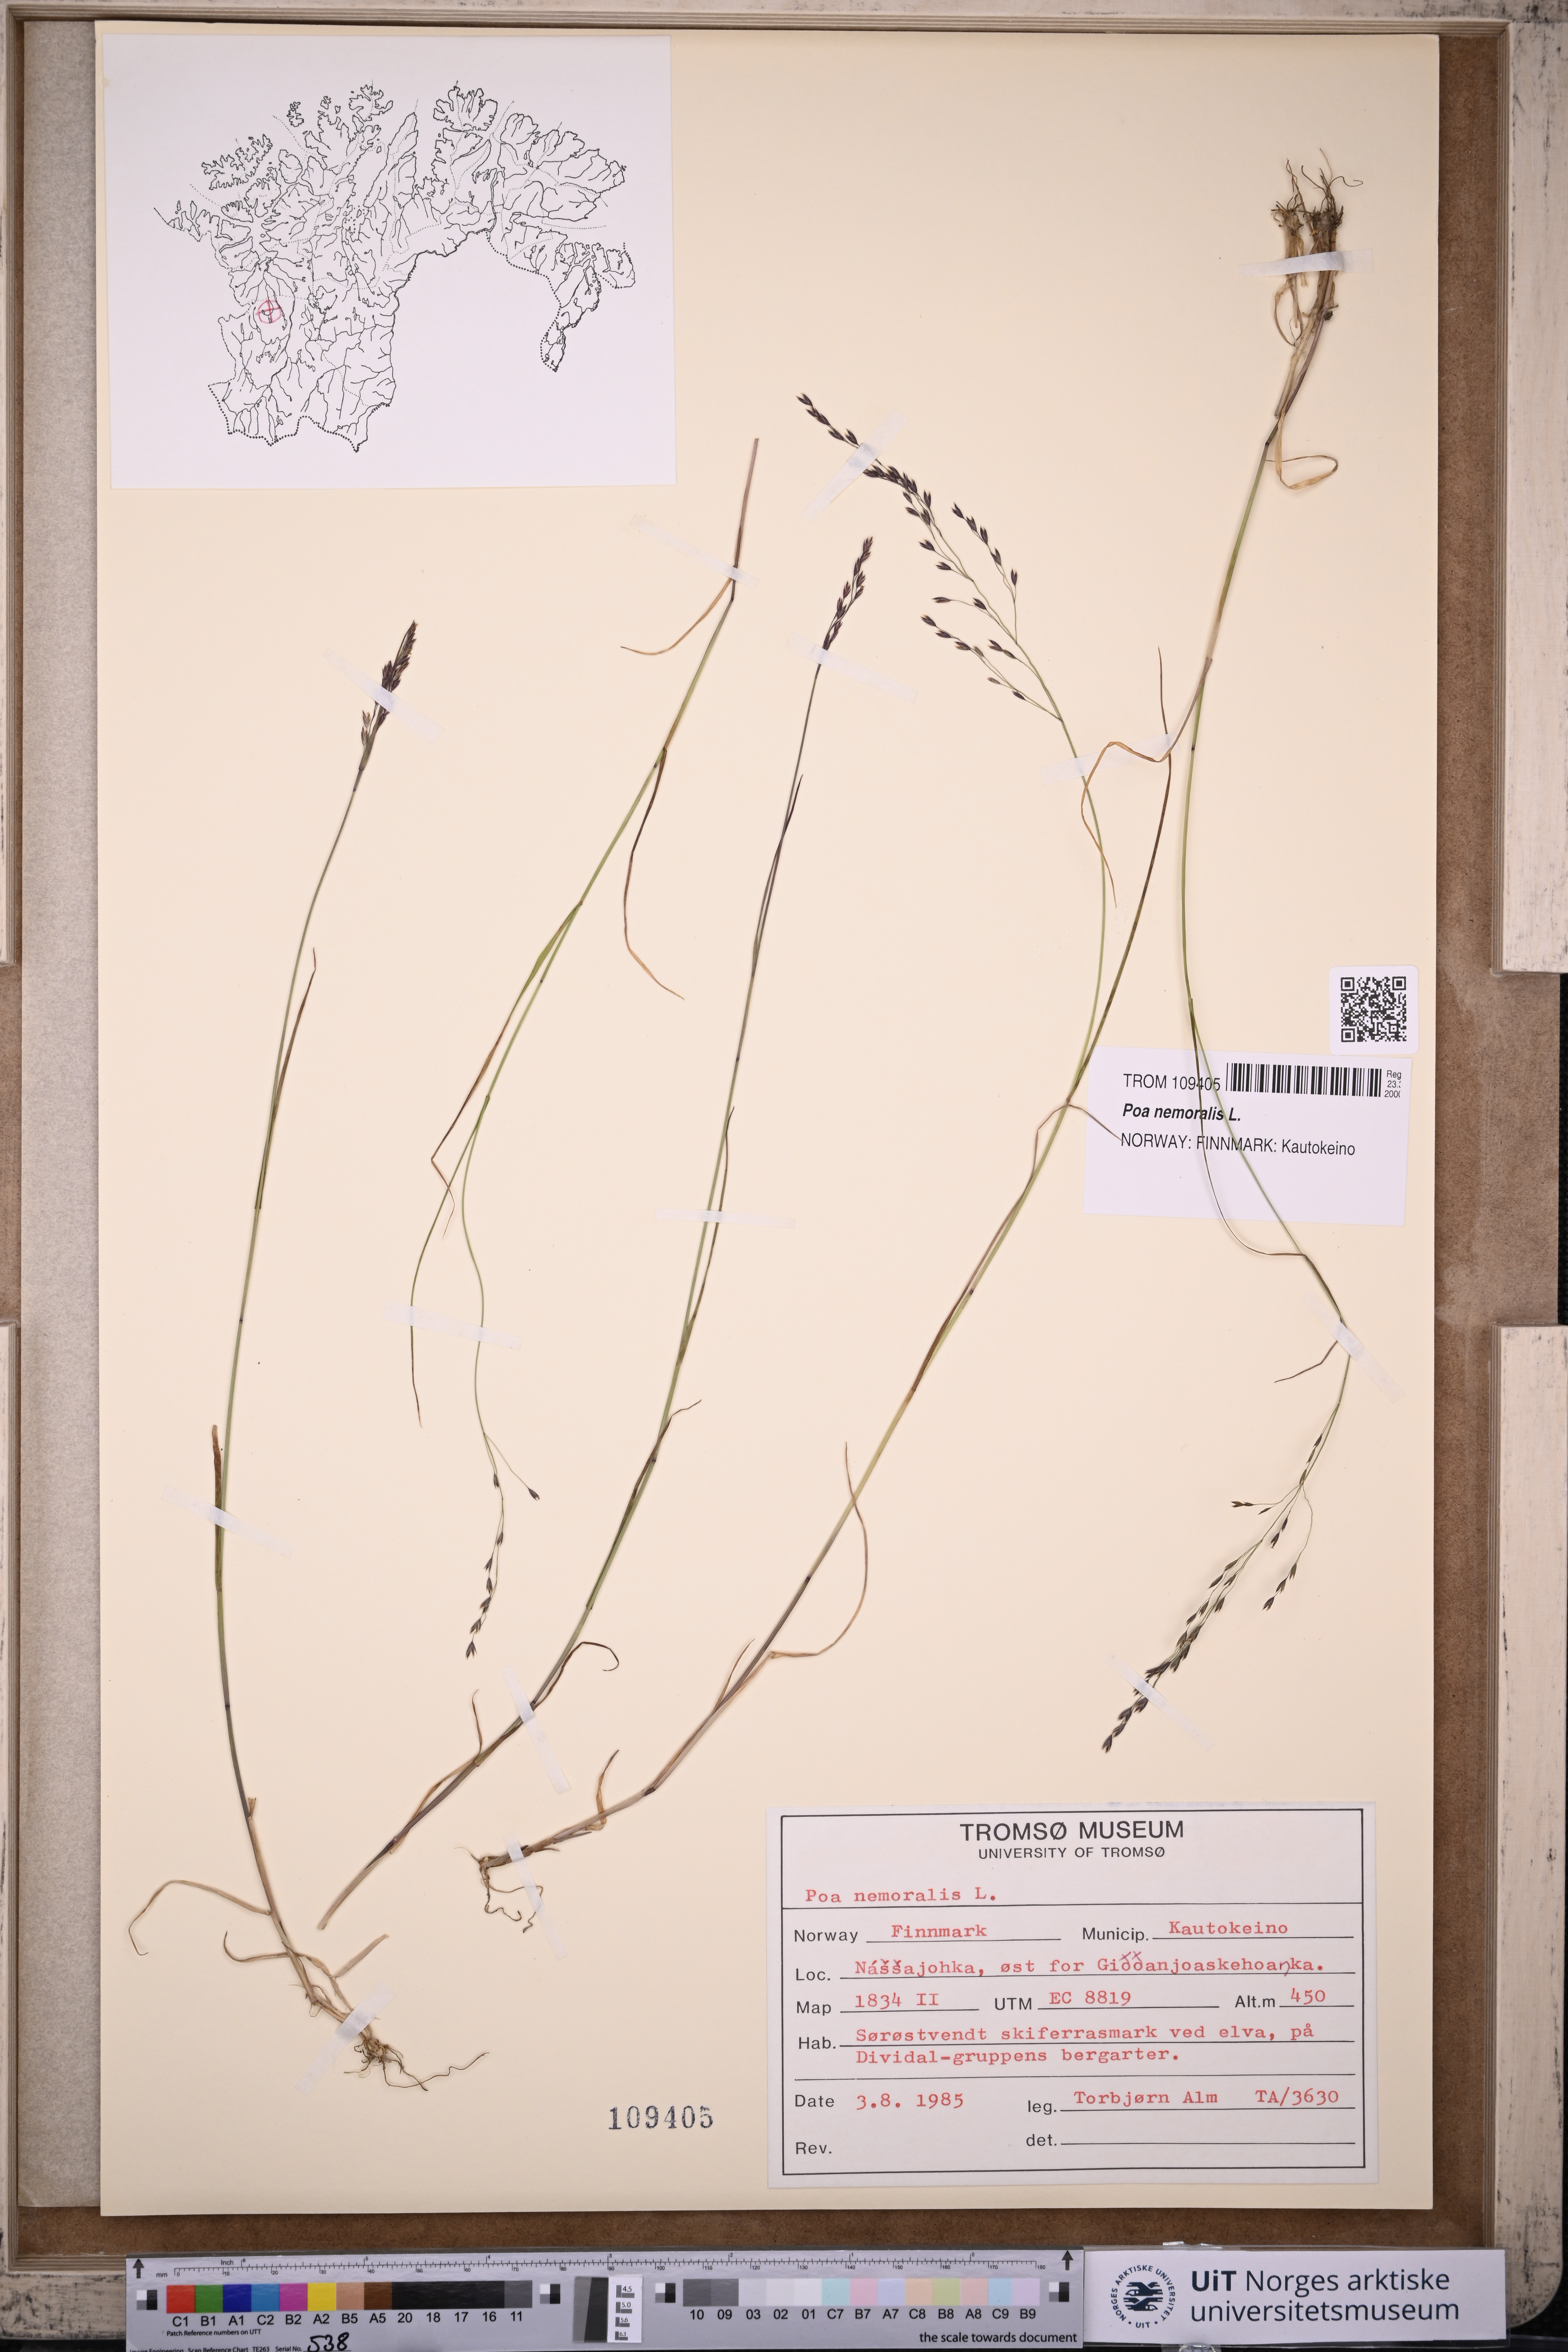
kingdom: Plantae
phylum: Tracheophyta
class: Liliopsida
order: Poales
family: Poaceae
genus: Poa
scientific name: Poa nemoralis
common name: Wood bluegrass
